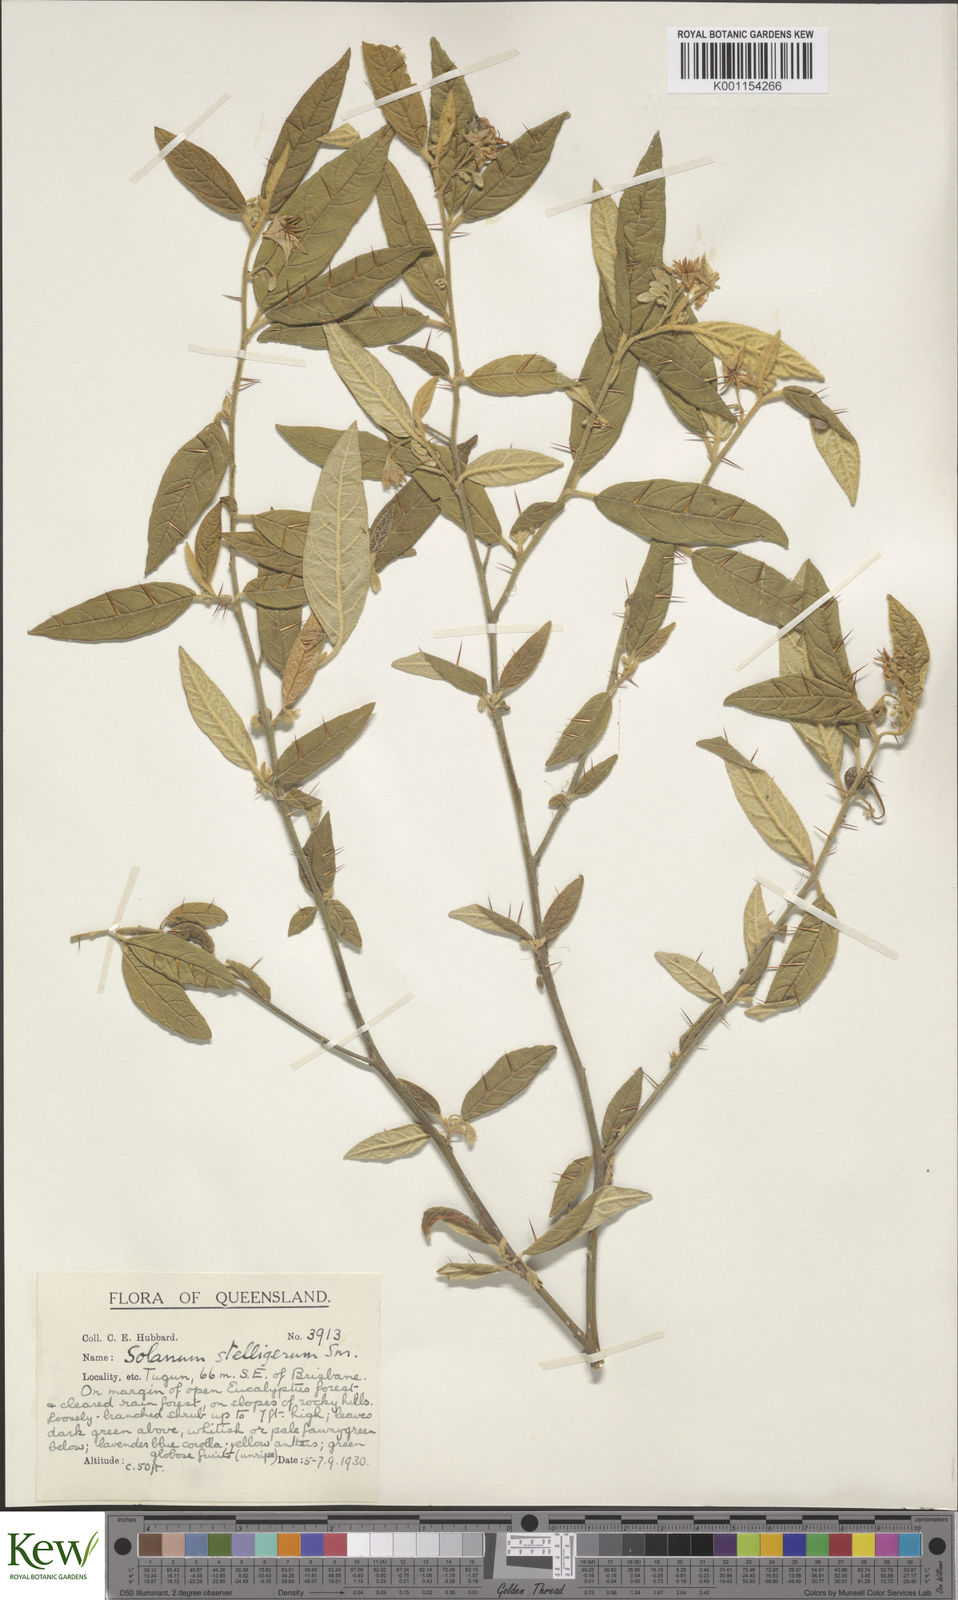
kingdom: Plantae
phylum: Tracheophyta
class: Magnoliopsida
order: Solanales
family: Solanaceae
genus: Solanum
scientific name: Solanum stelligerum
